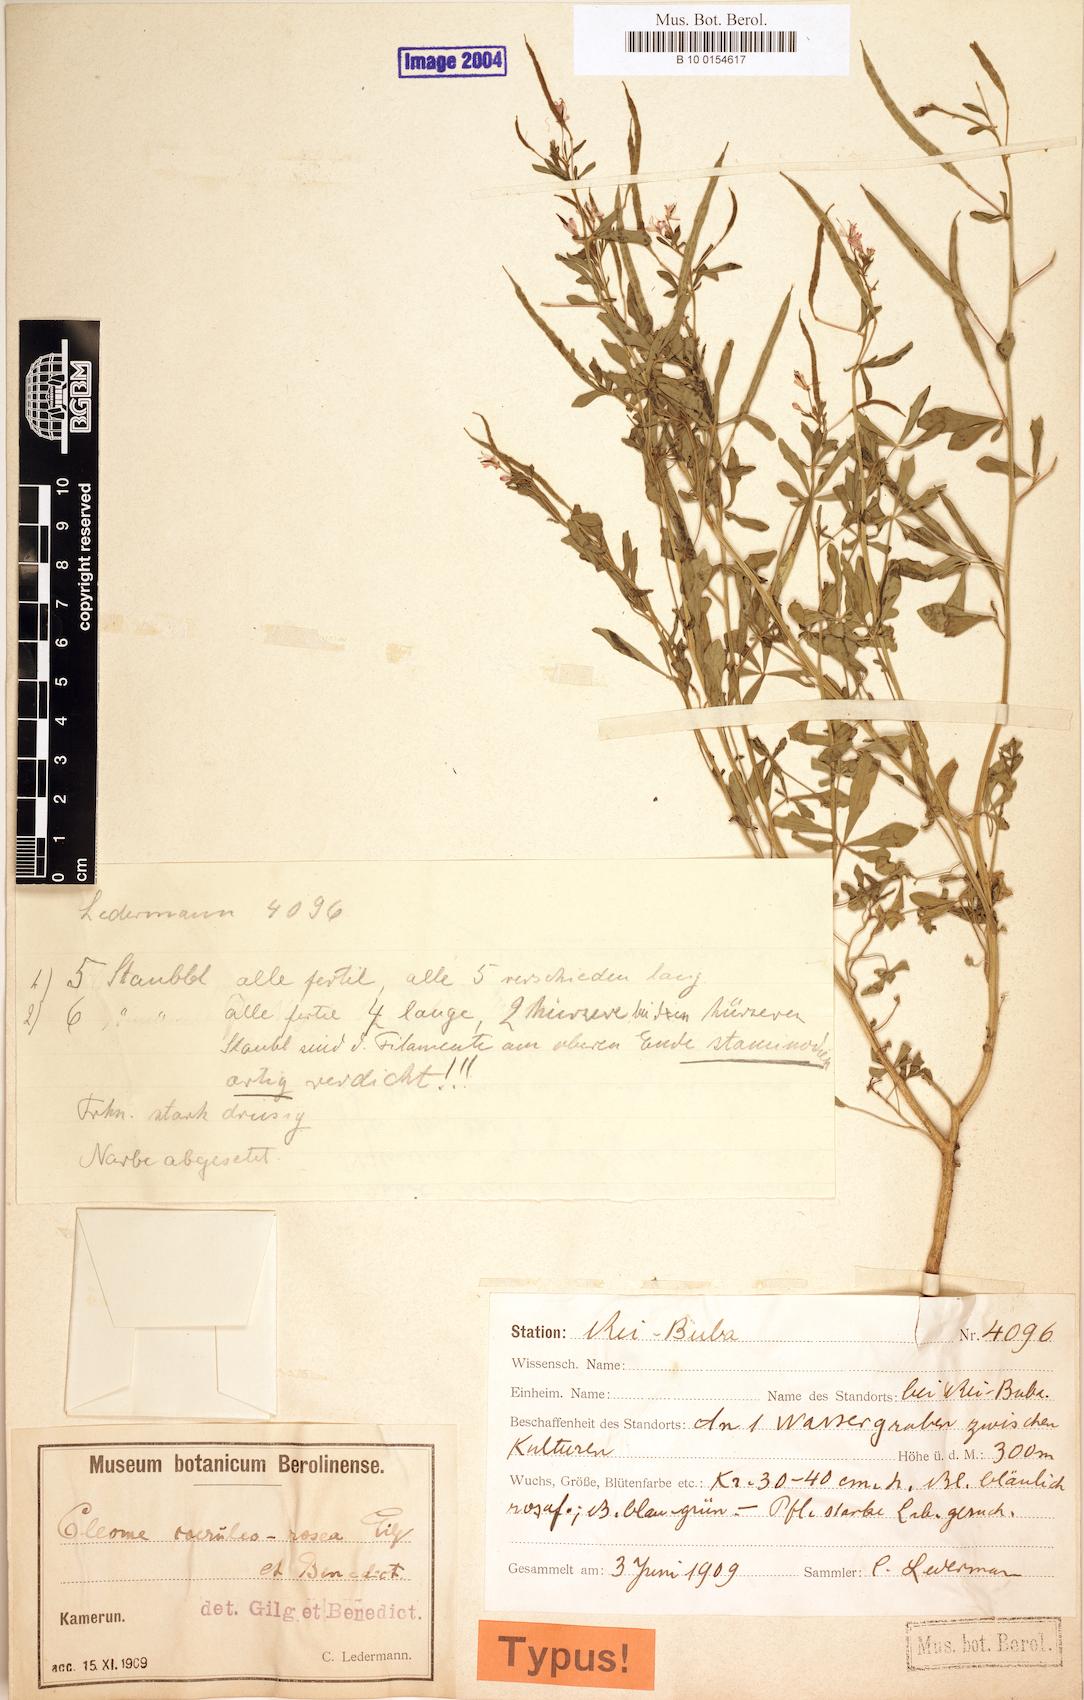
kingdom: Plantae
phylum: Tracheophyta
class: Magnoliopsida
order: Brassicales
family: Cleomaceae
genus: Sieruela
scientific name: Sieruela coeruleorosea
